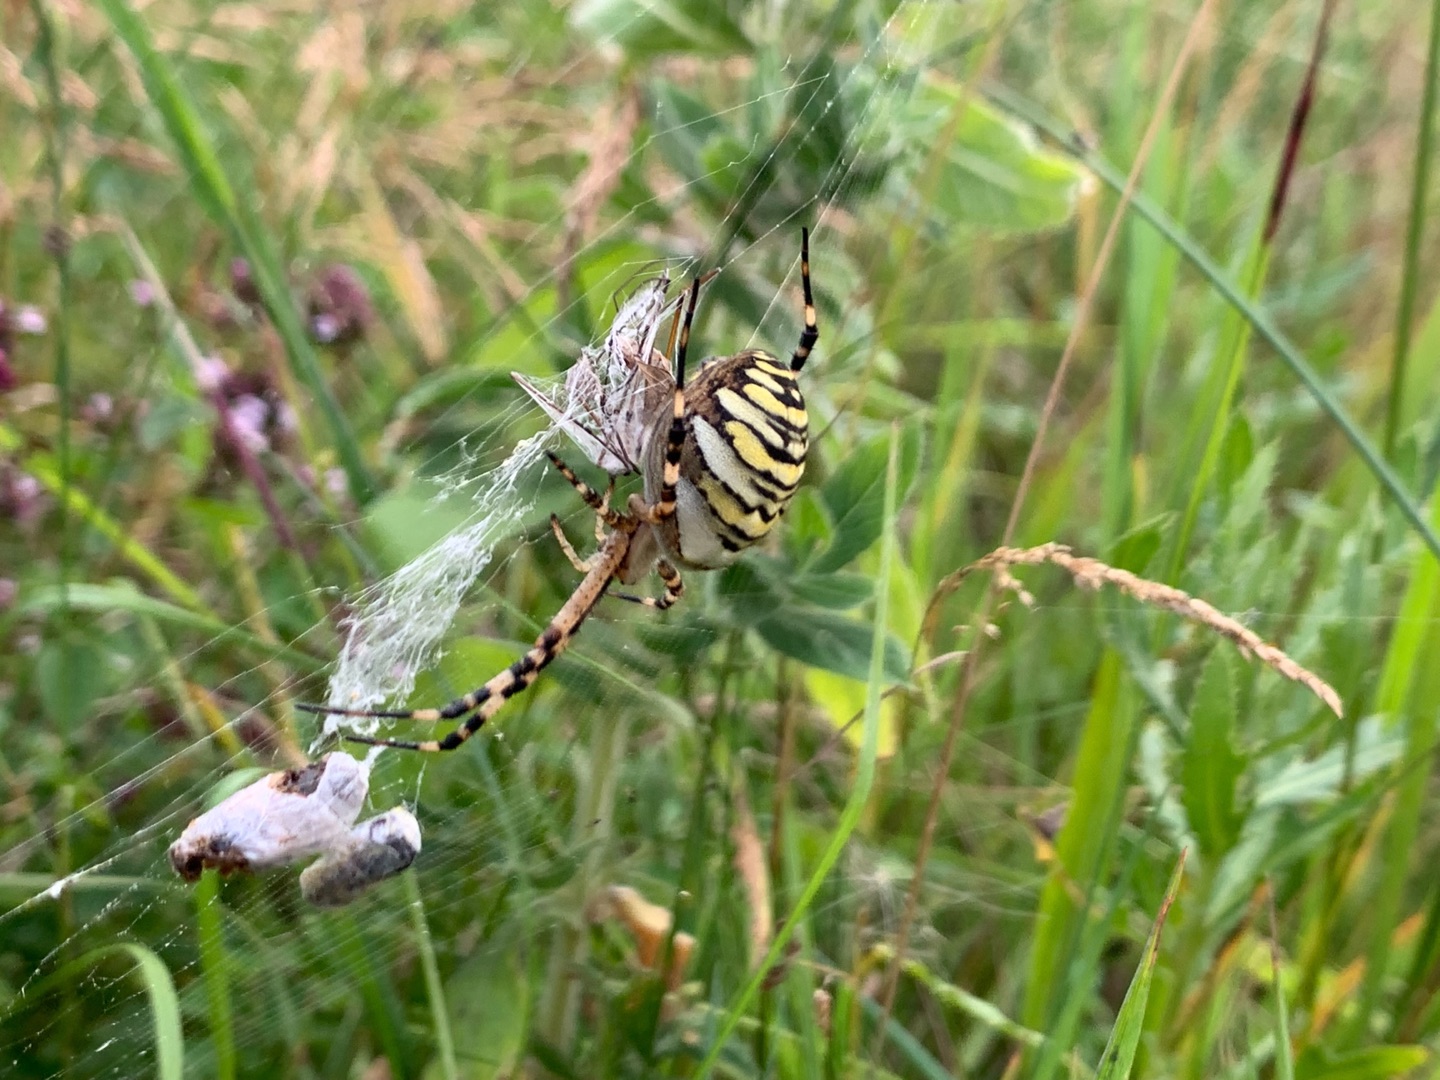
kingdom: Animalia
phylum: Arthropoda
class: Arachnida
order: Araneae
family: Araneidae
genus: Argiope
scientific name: Argiope bruennichi
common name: Hvepseedderkop
